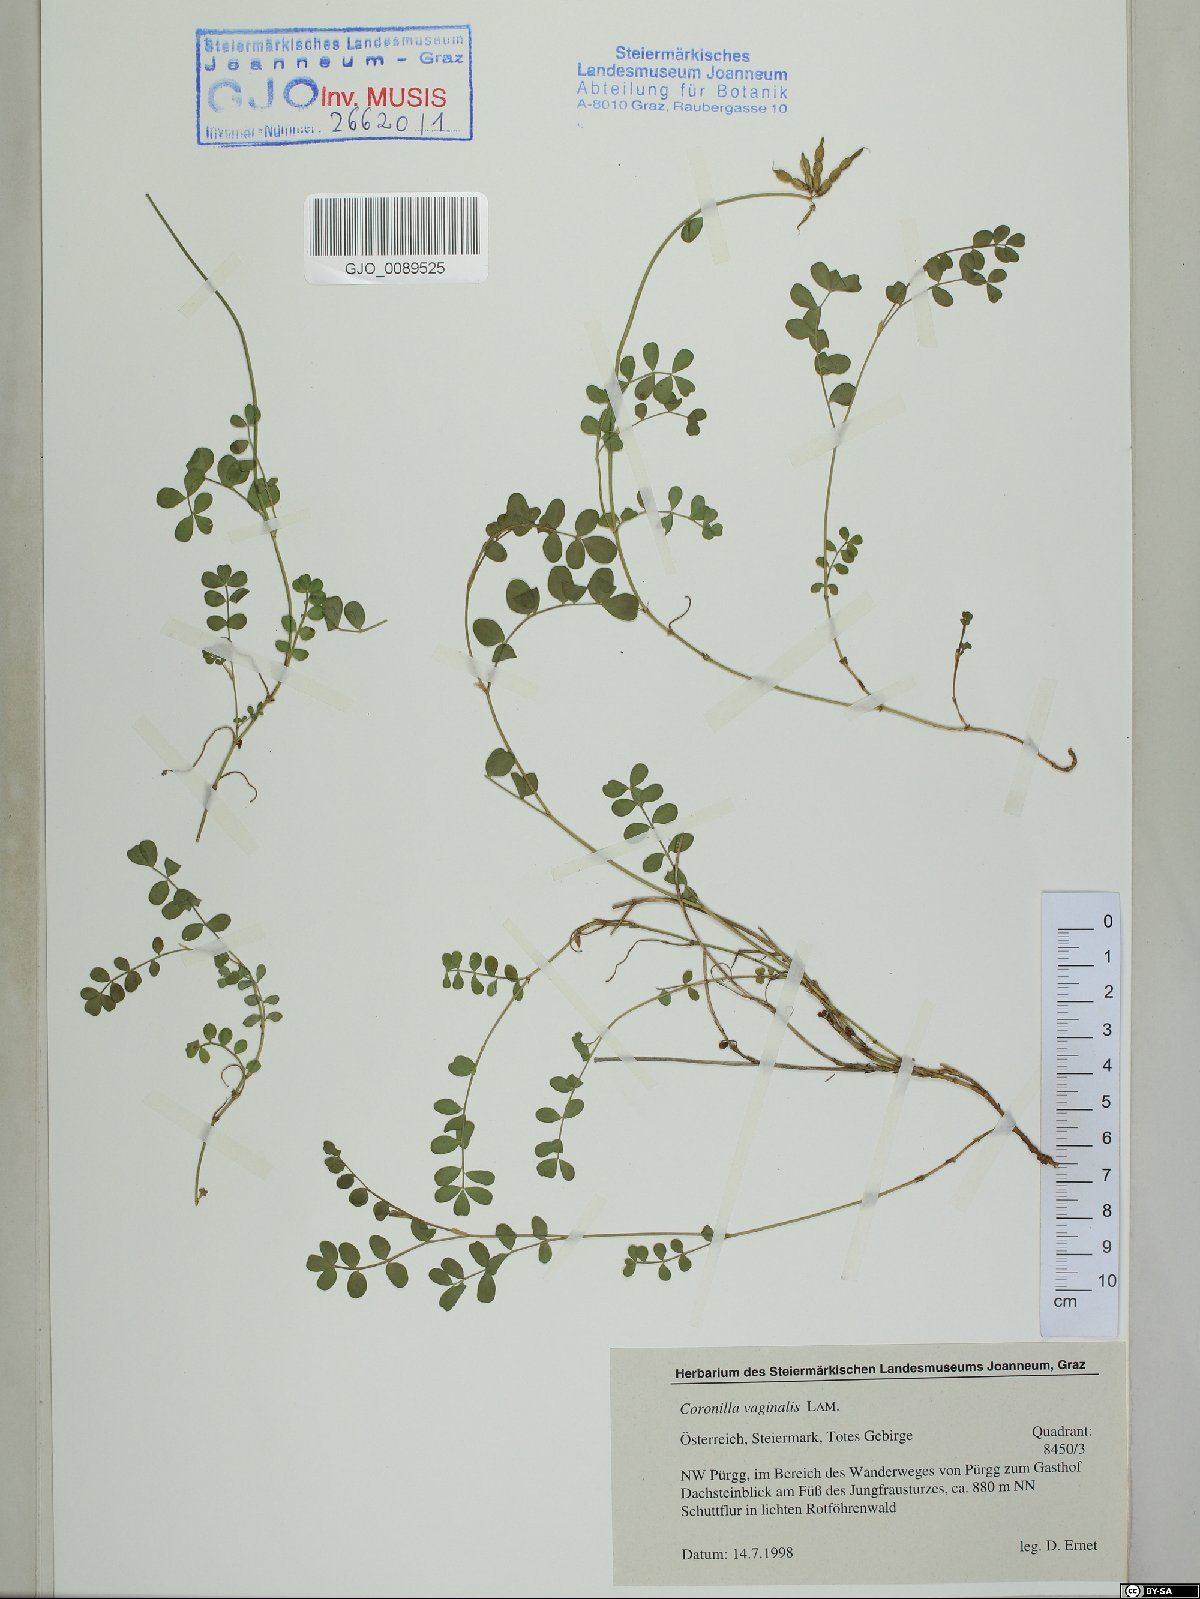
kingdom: Plantae
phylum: Tracheophyta
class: Magnoliopsida
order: Fabales
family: Fabaceae
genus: Coronilla
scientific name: Coronilla vaginalis
